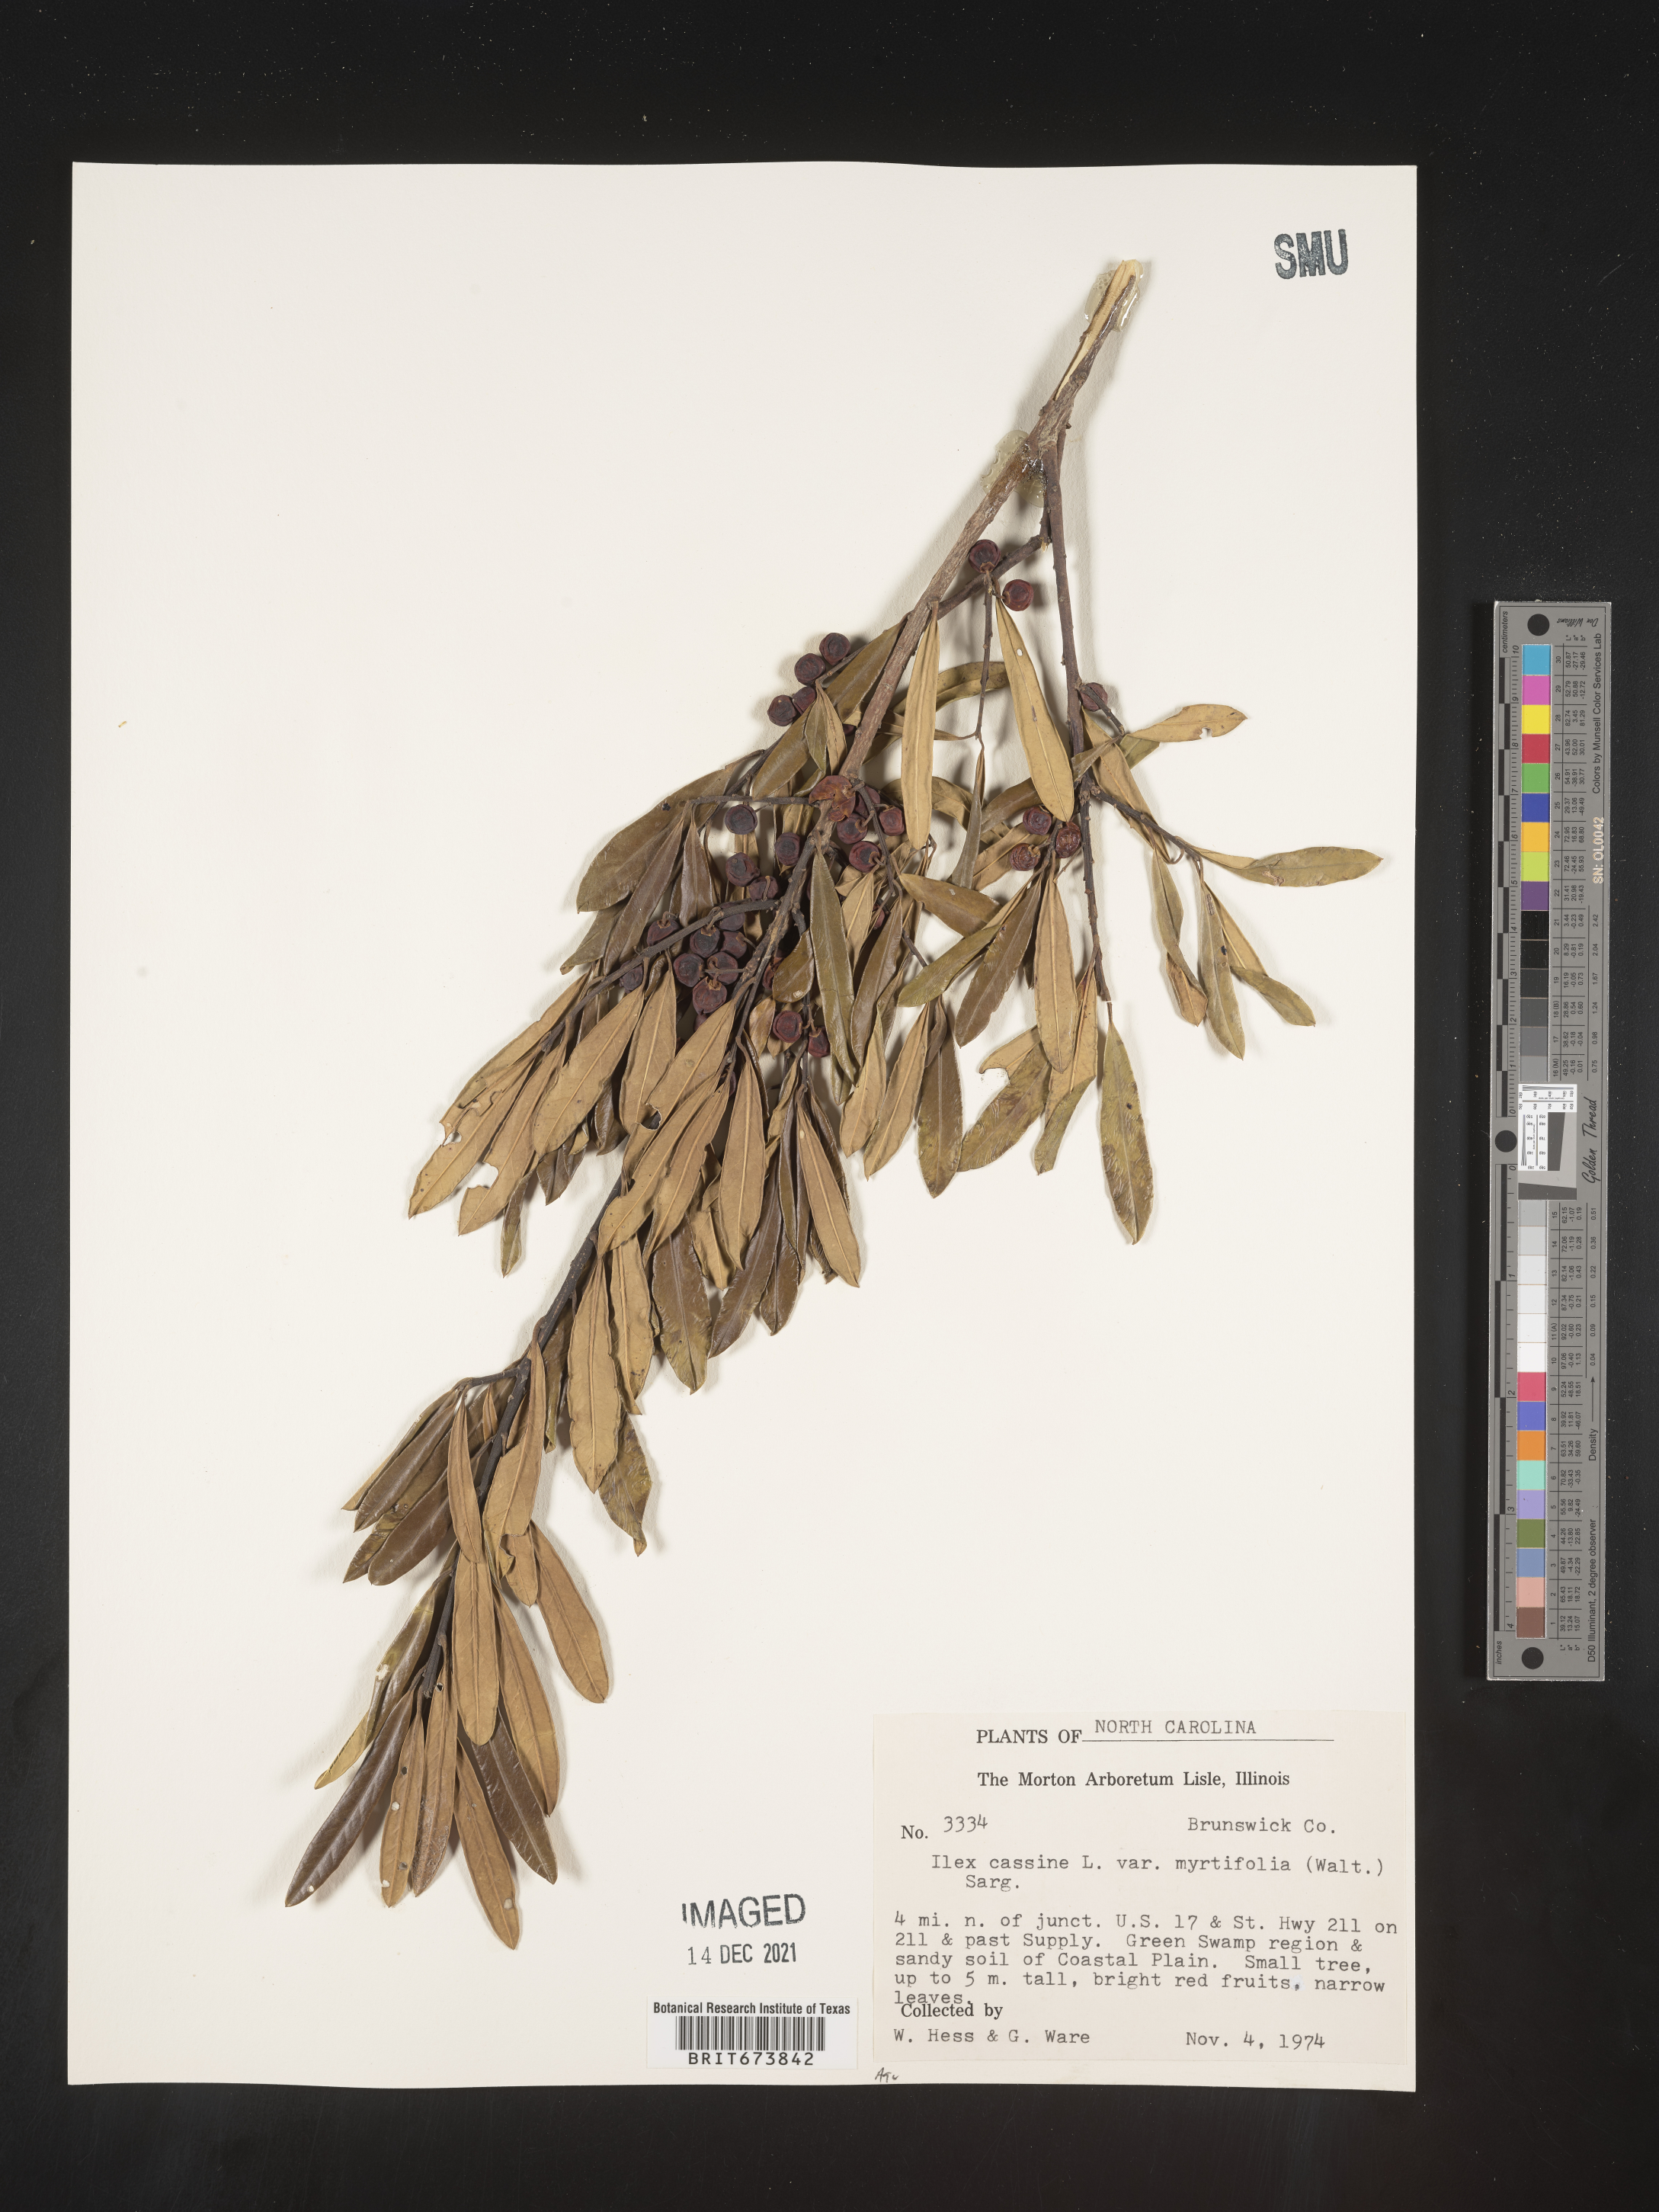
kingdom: Plantae
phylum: Tracheophyta
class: Magnoliopsida
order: Aquifoliales
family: Aquifoliaceae
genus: Ilex
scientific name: Ilex myrtifolia
